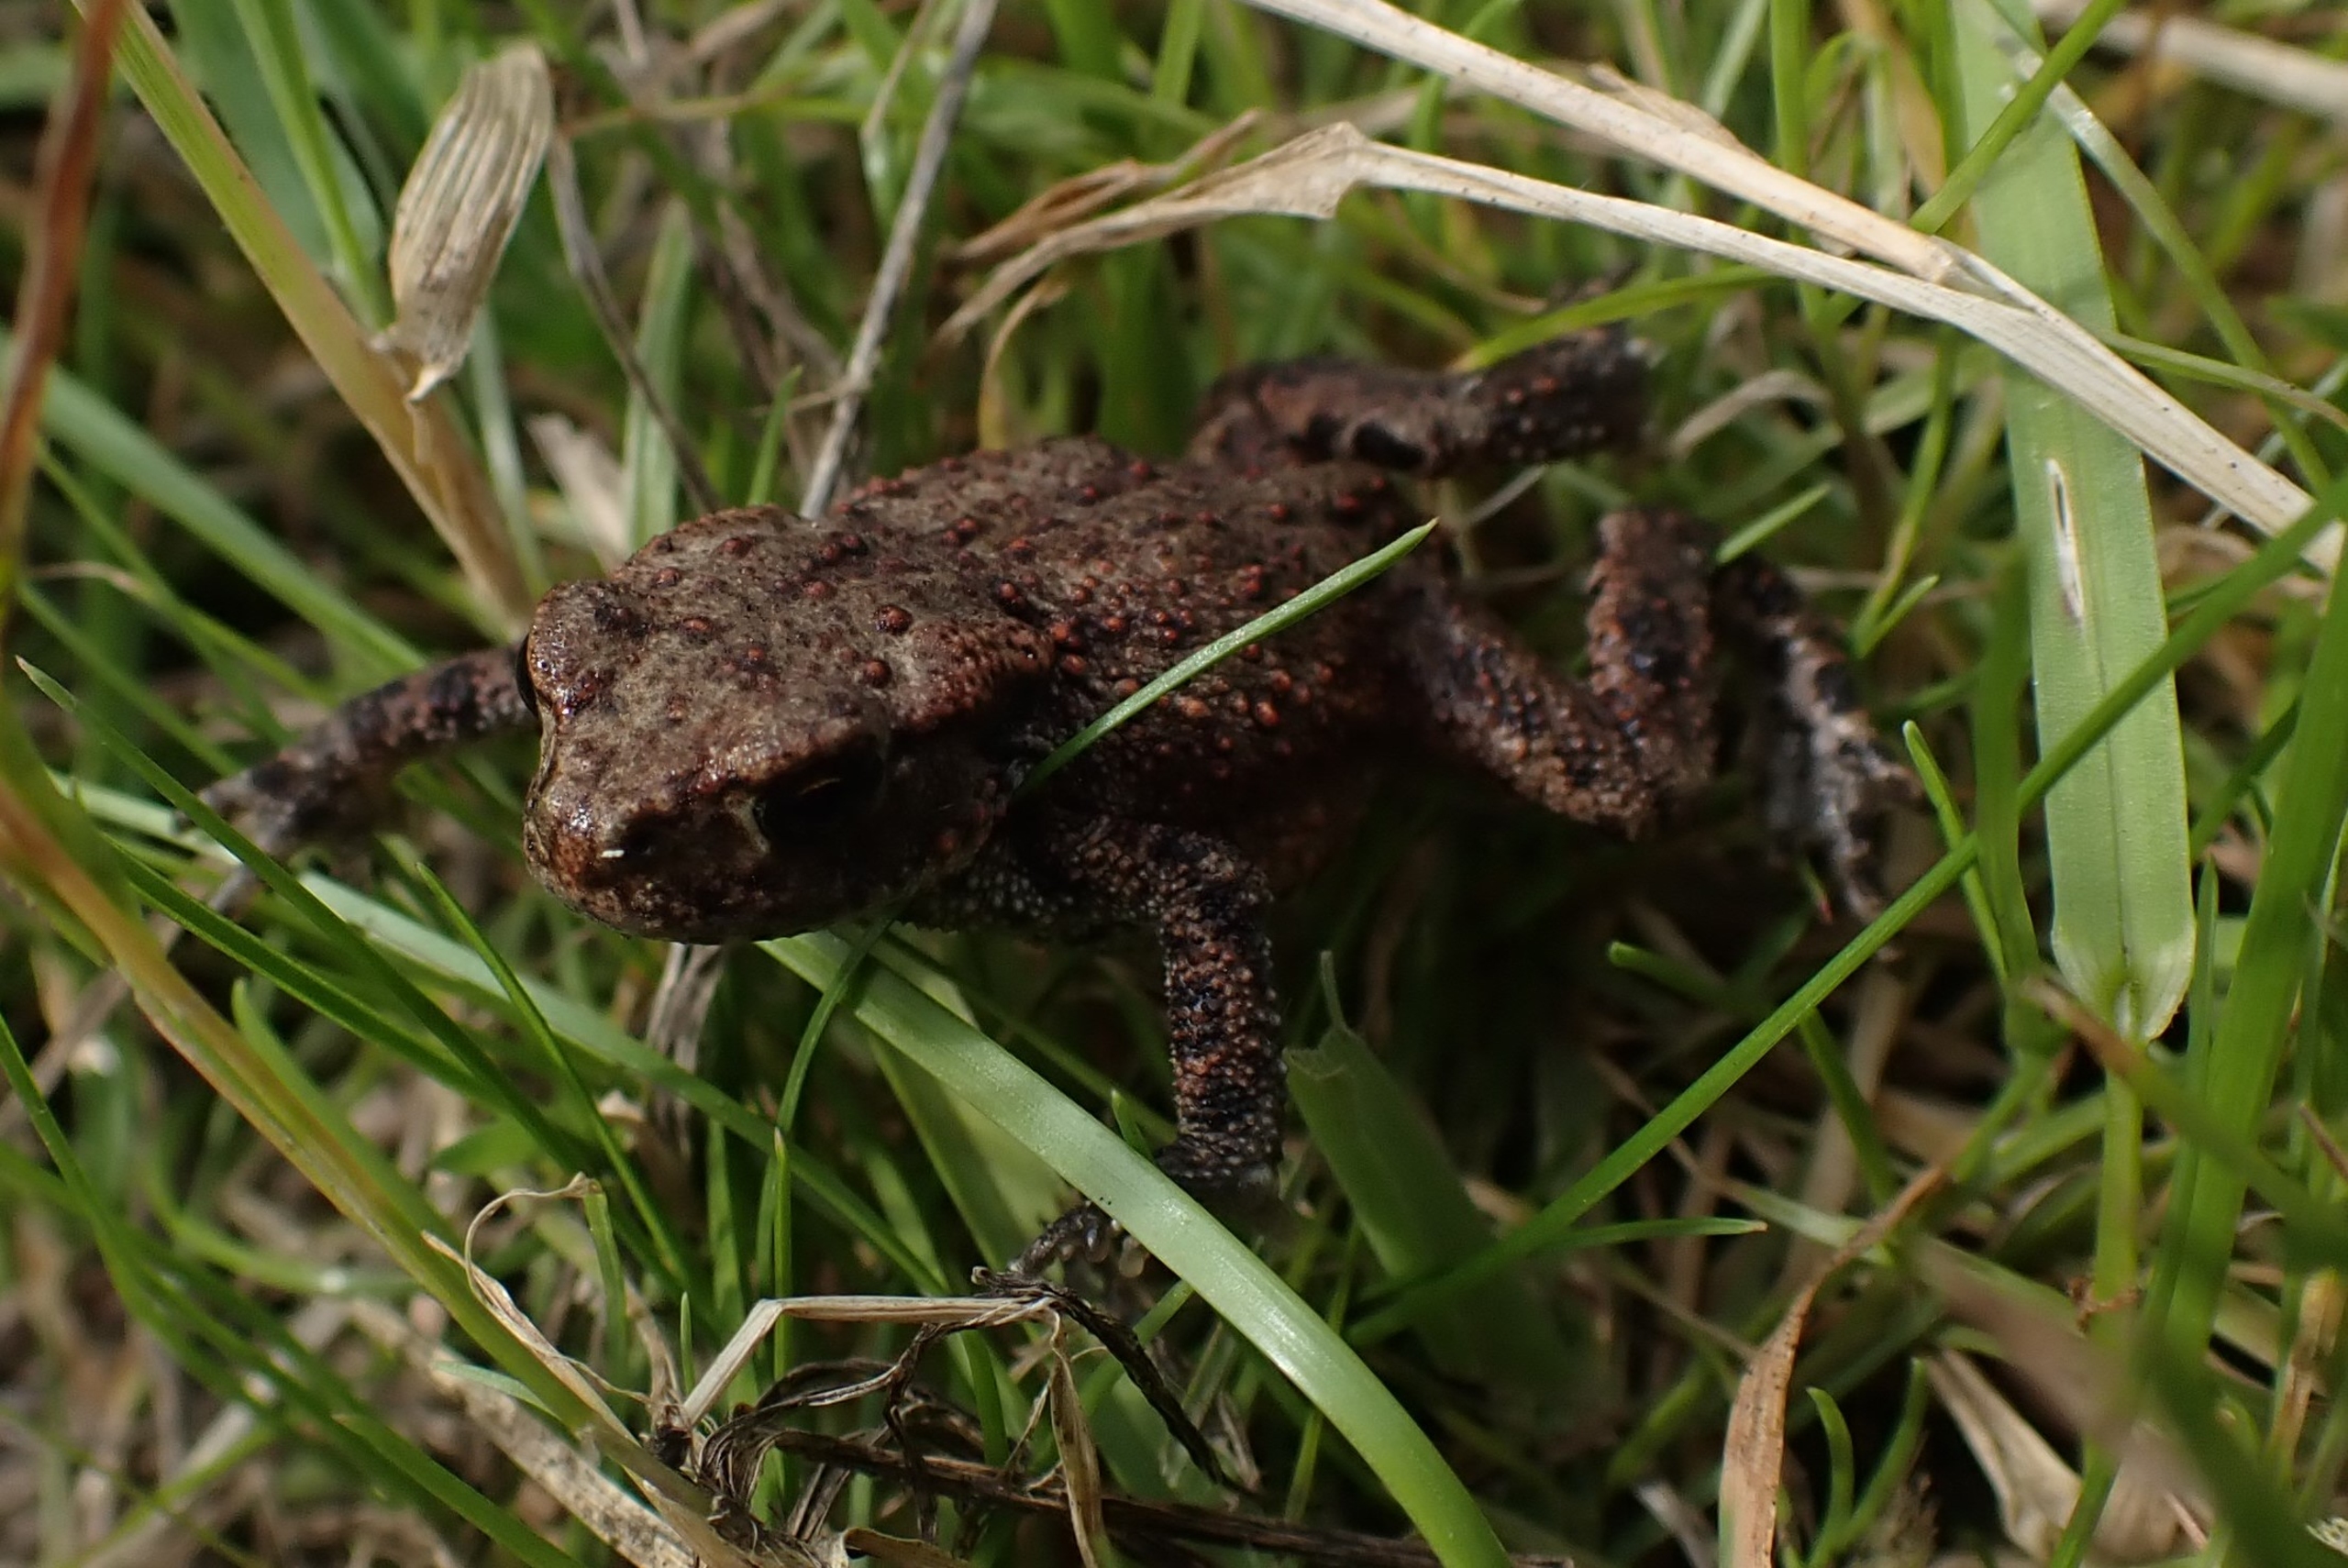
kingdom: Animalia
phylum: Chordata
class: Amphibia
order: Anura
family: Bufonidae
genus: Bufo
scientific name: Bufo bufo
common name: Skrubtudse
